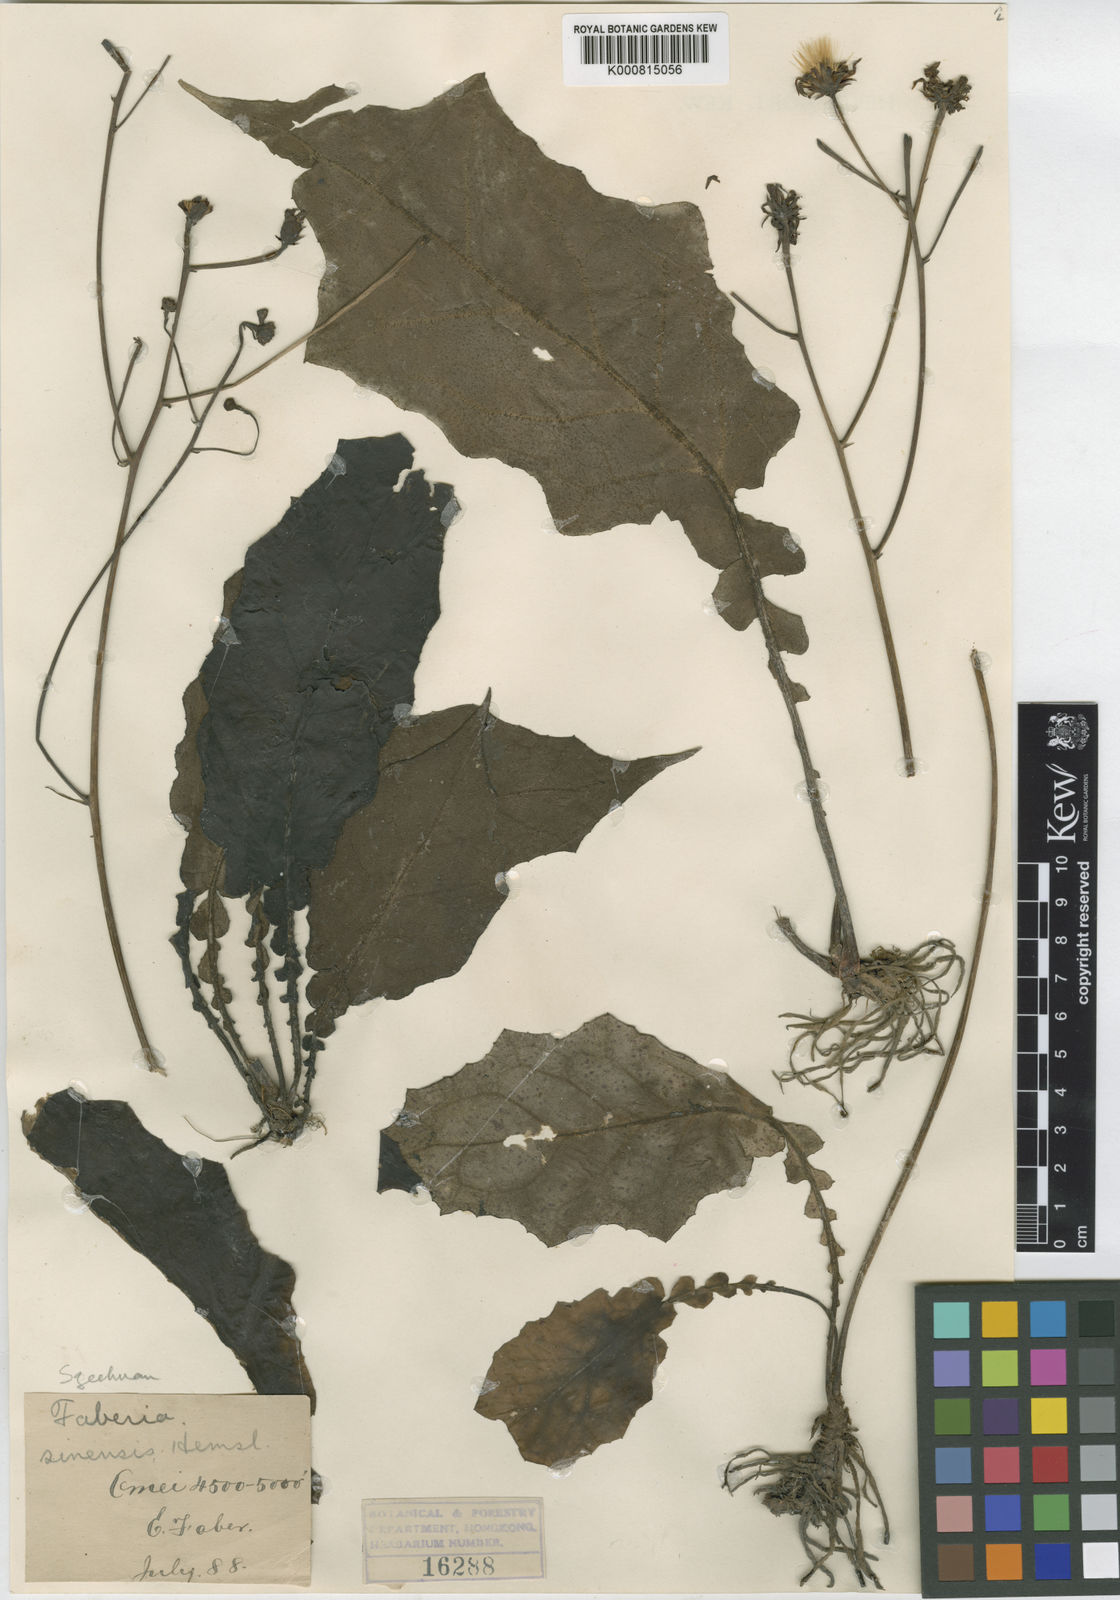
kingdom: Plantae
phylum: Tracheophyta
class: Magnoliopsida
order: Asterales
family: Asteraceae
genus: Prenanthes
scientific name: Prenanthes
